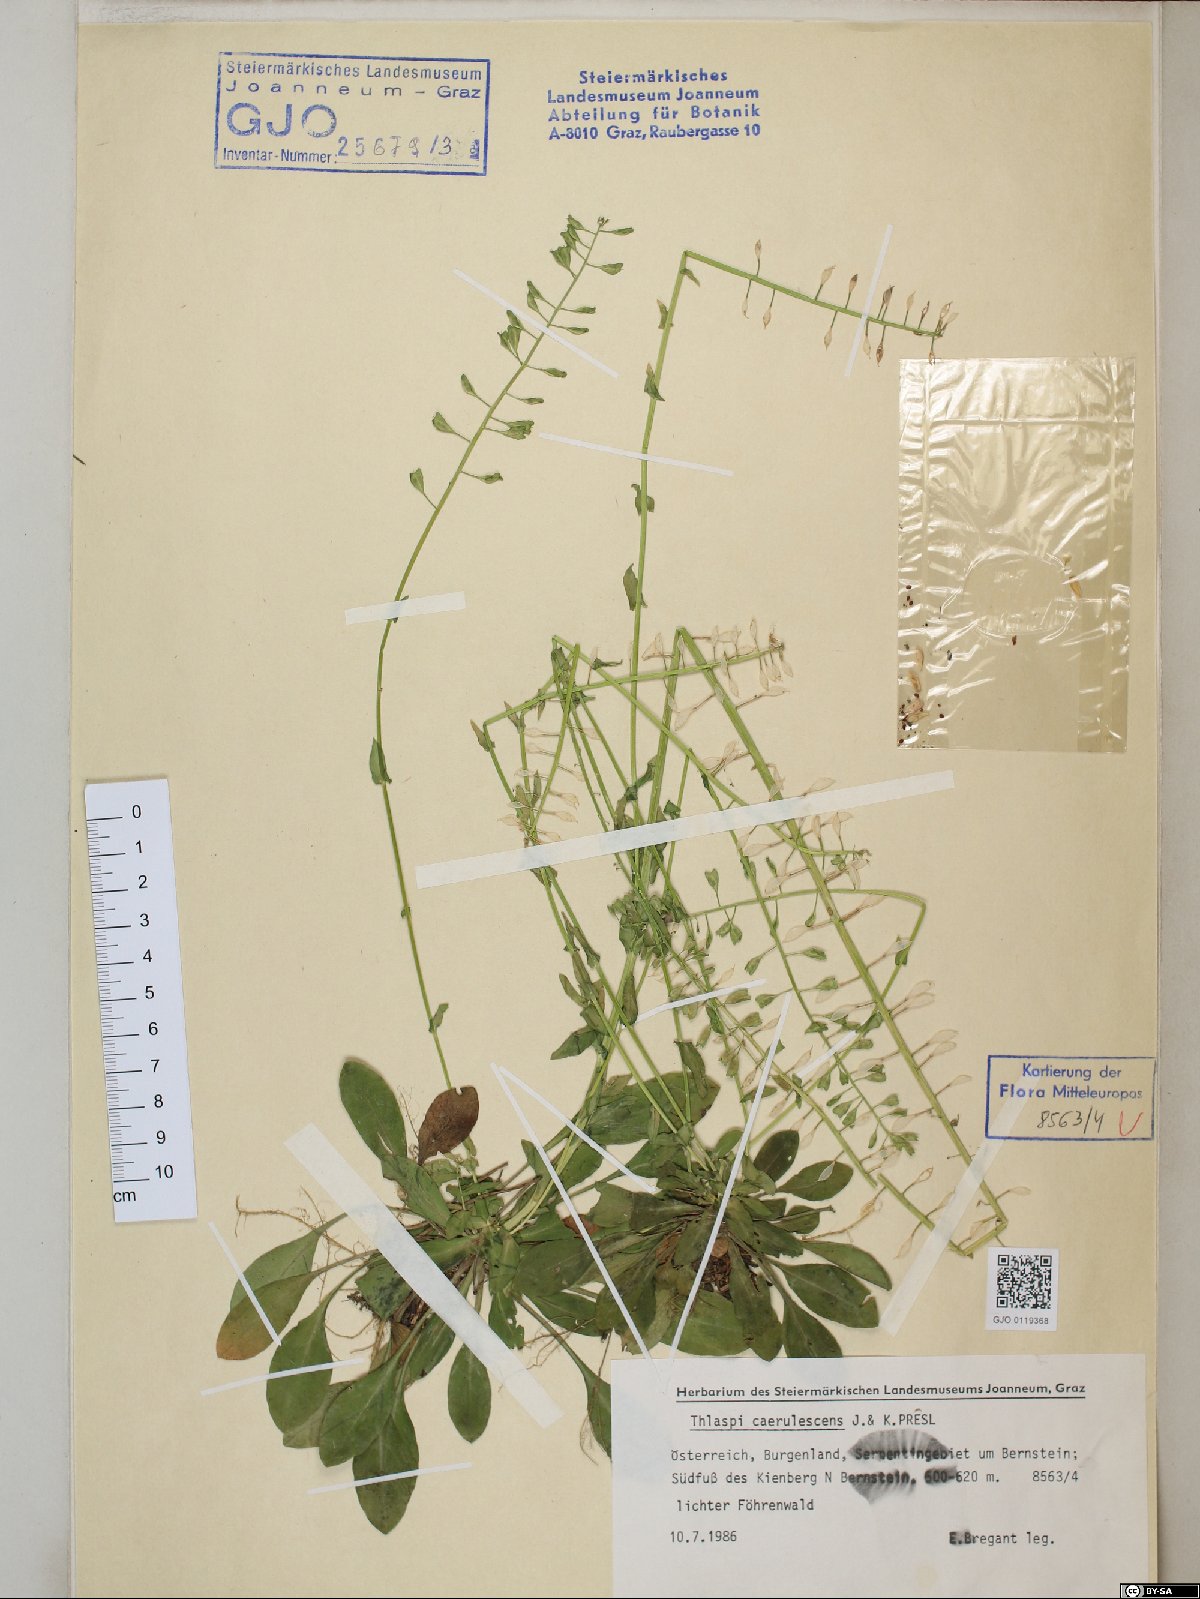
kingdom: Plantae
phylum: Tracheophyta
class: Magnoliopsida
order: Brassicales
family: Brassicaceae
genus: Noccaea
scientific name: Noccaea caerulescens
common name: Alpine pennycress
